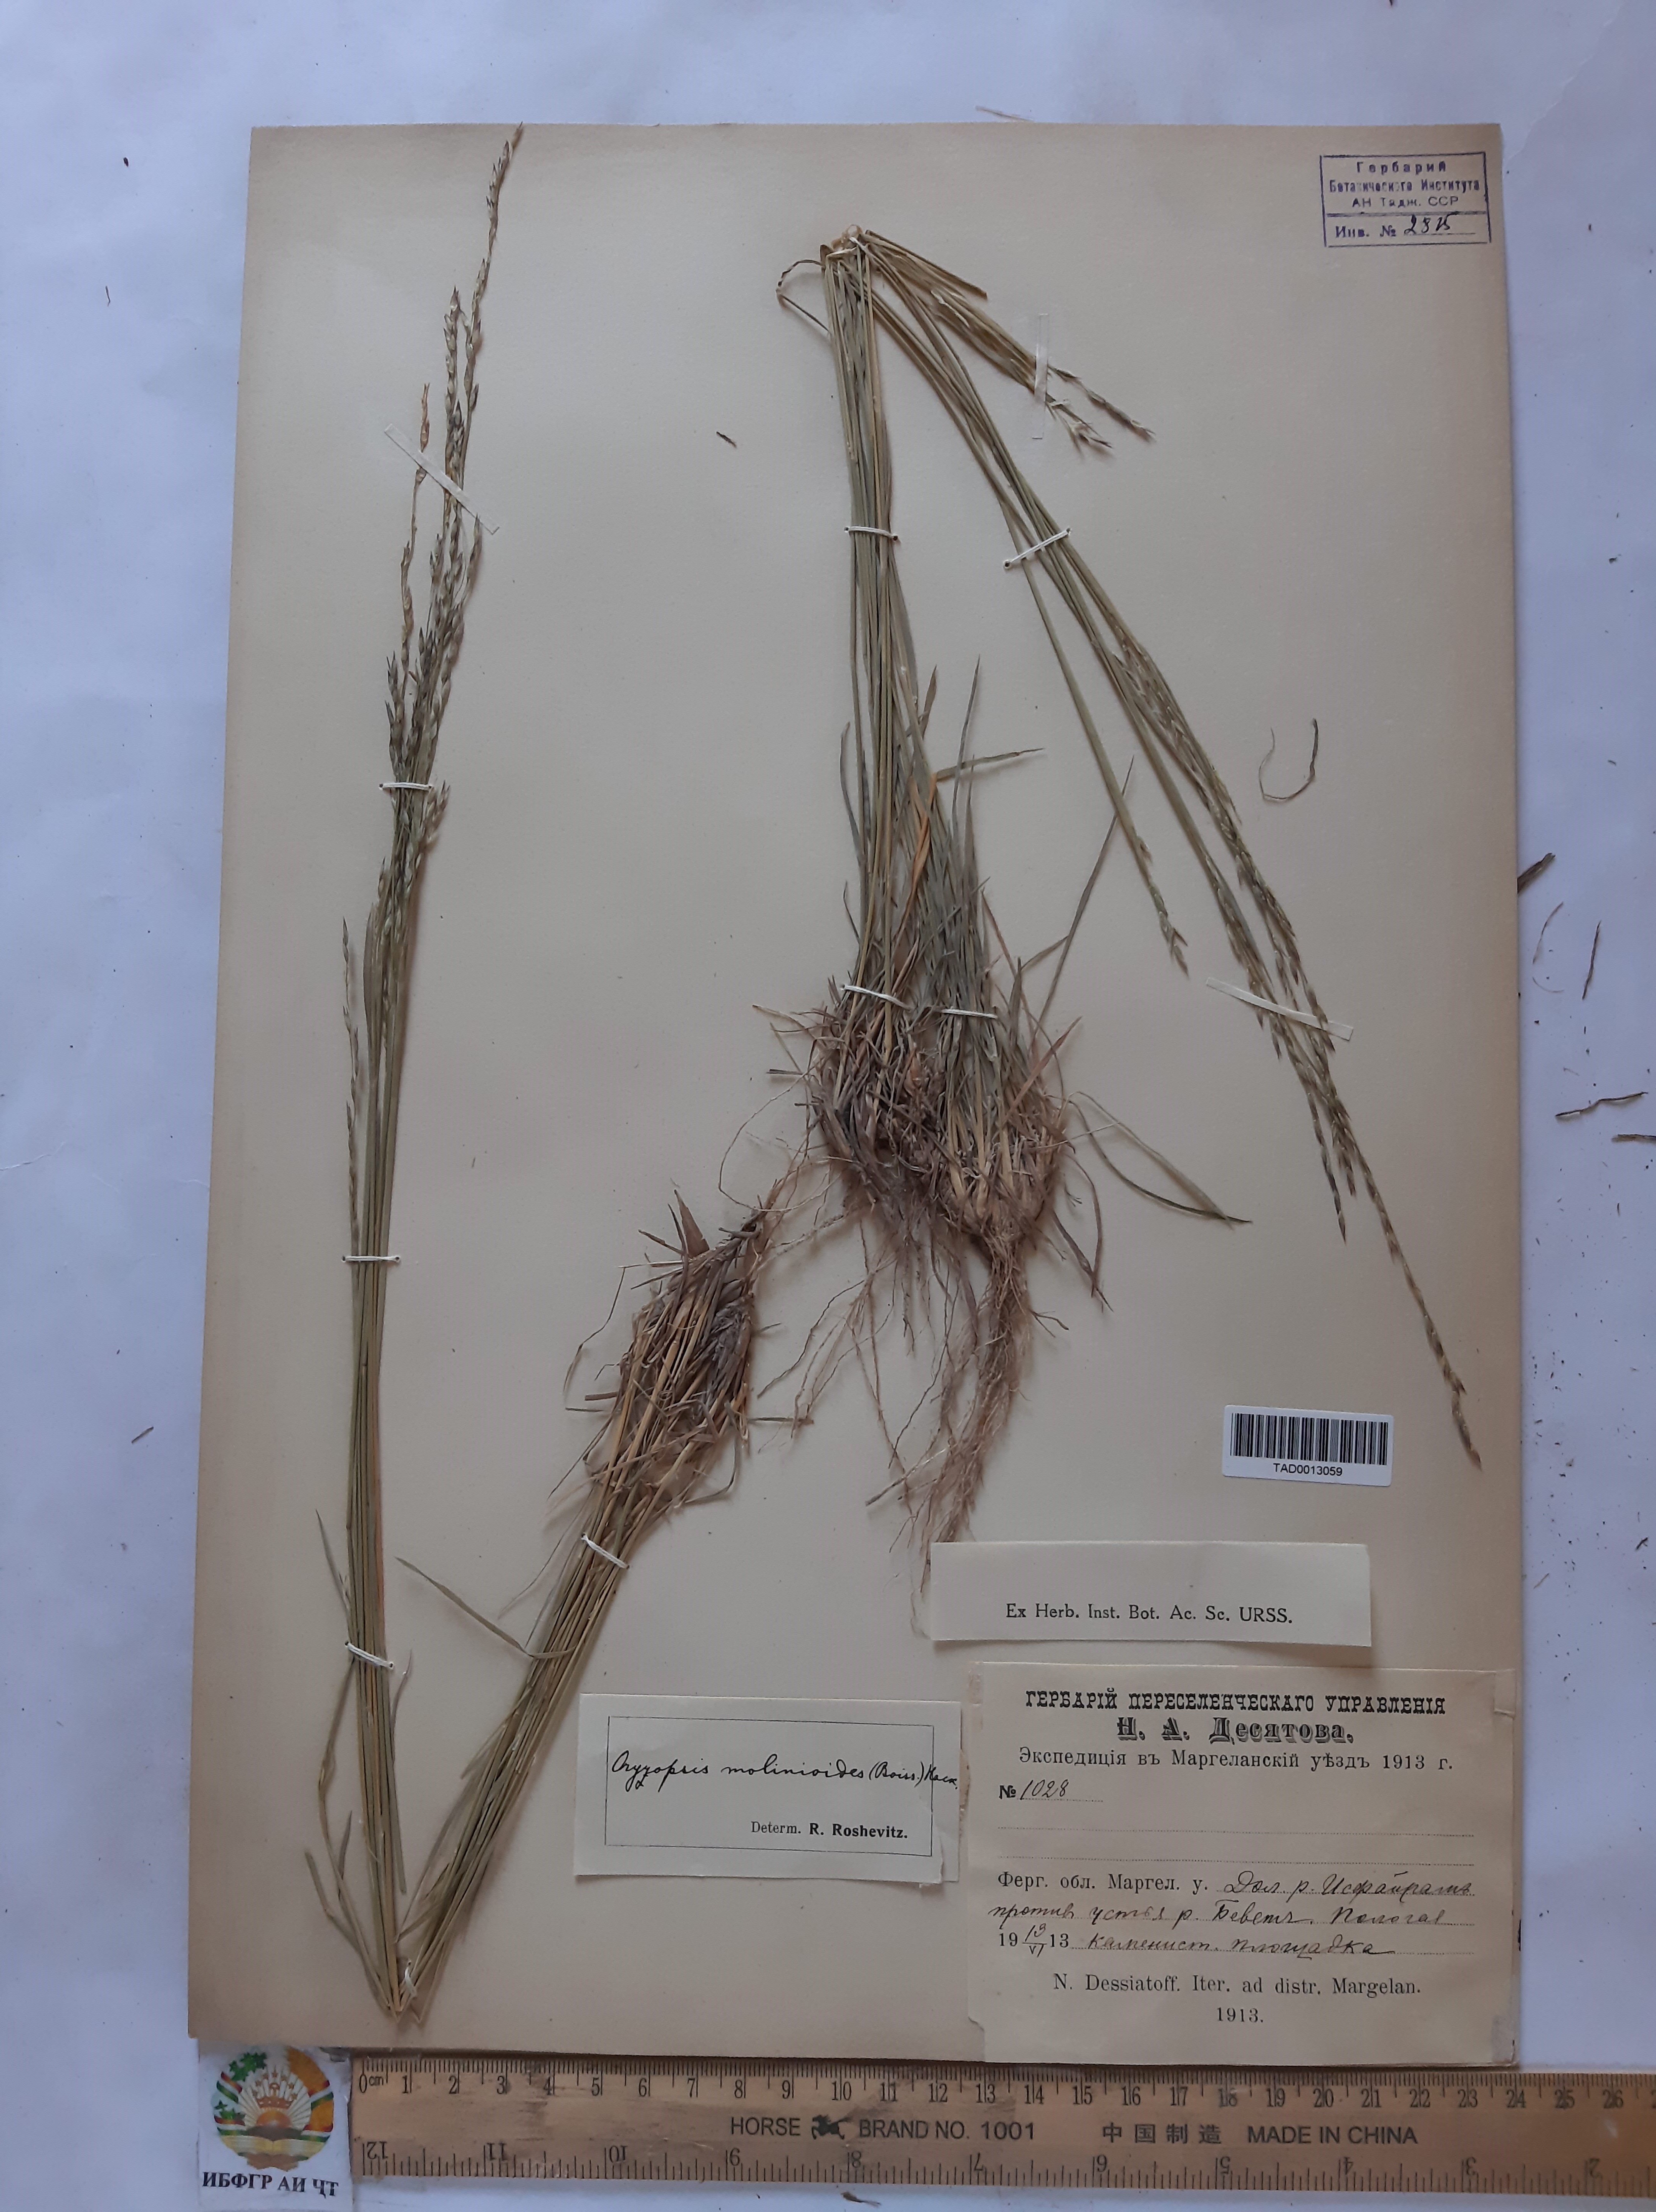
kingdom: Plantae
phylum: Tracheophyta
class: Liliopsida
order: Poales
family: Poaceae
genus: Piptatherum
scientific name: Piptatherum laterale
